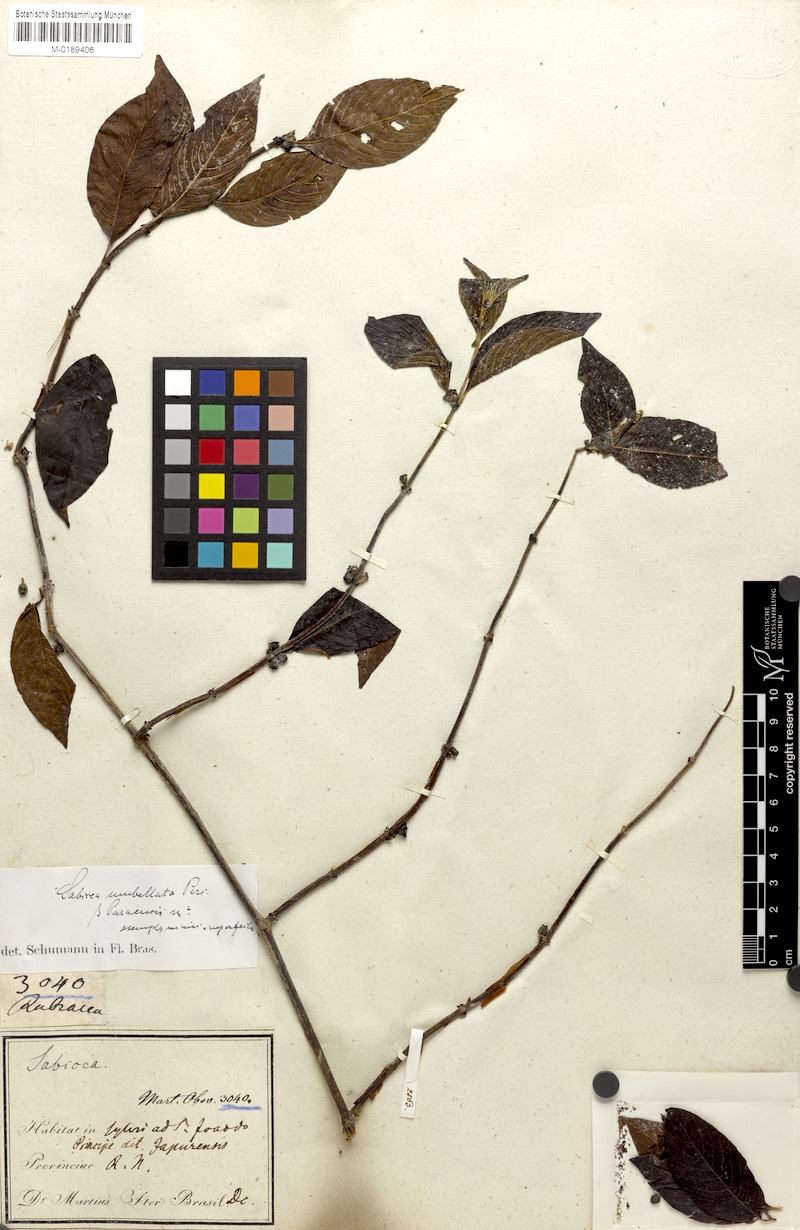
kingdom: Plantae
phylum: Tracheophyta
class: Magnoliopsida
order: Gentianales
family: Rubiaceae
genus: Sabicea
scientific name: Sabicea panamensis
